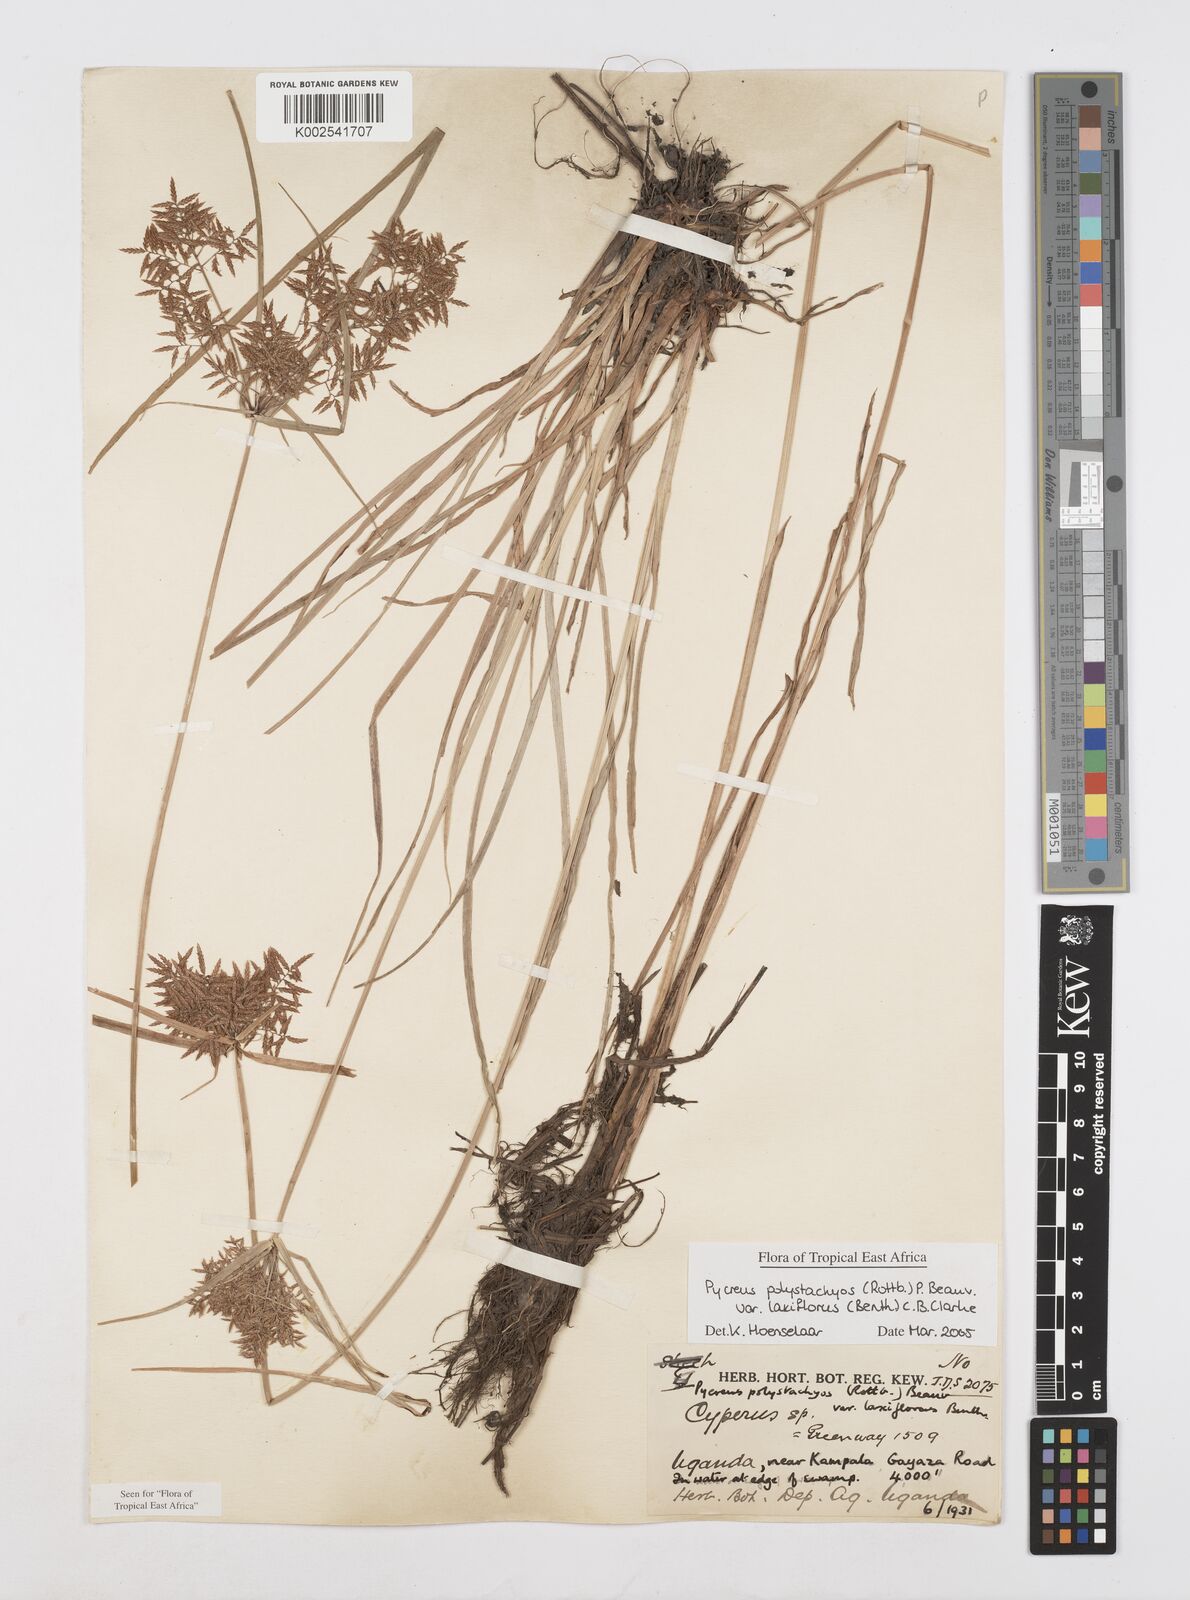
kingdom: Plantae
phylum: Tracheophyta
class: Liliopsida
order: Poales
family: Cyperaceae
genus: Cyperus
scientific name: Cyperus polystachyos
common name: Bunchy flat sedge
